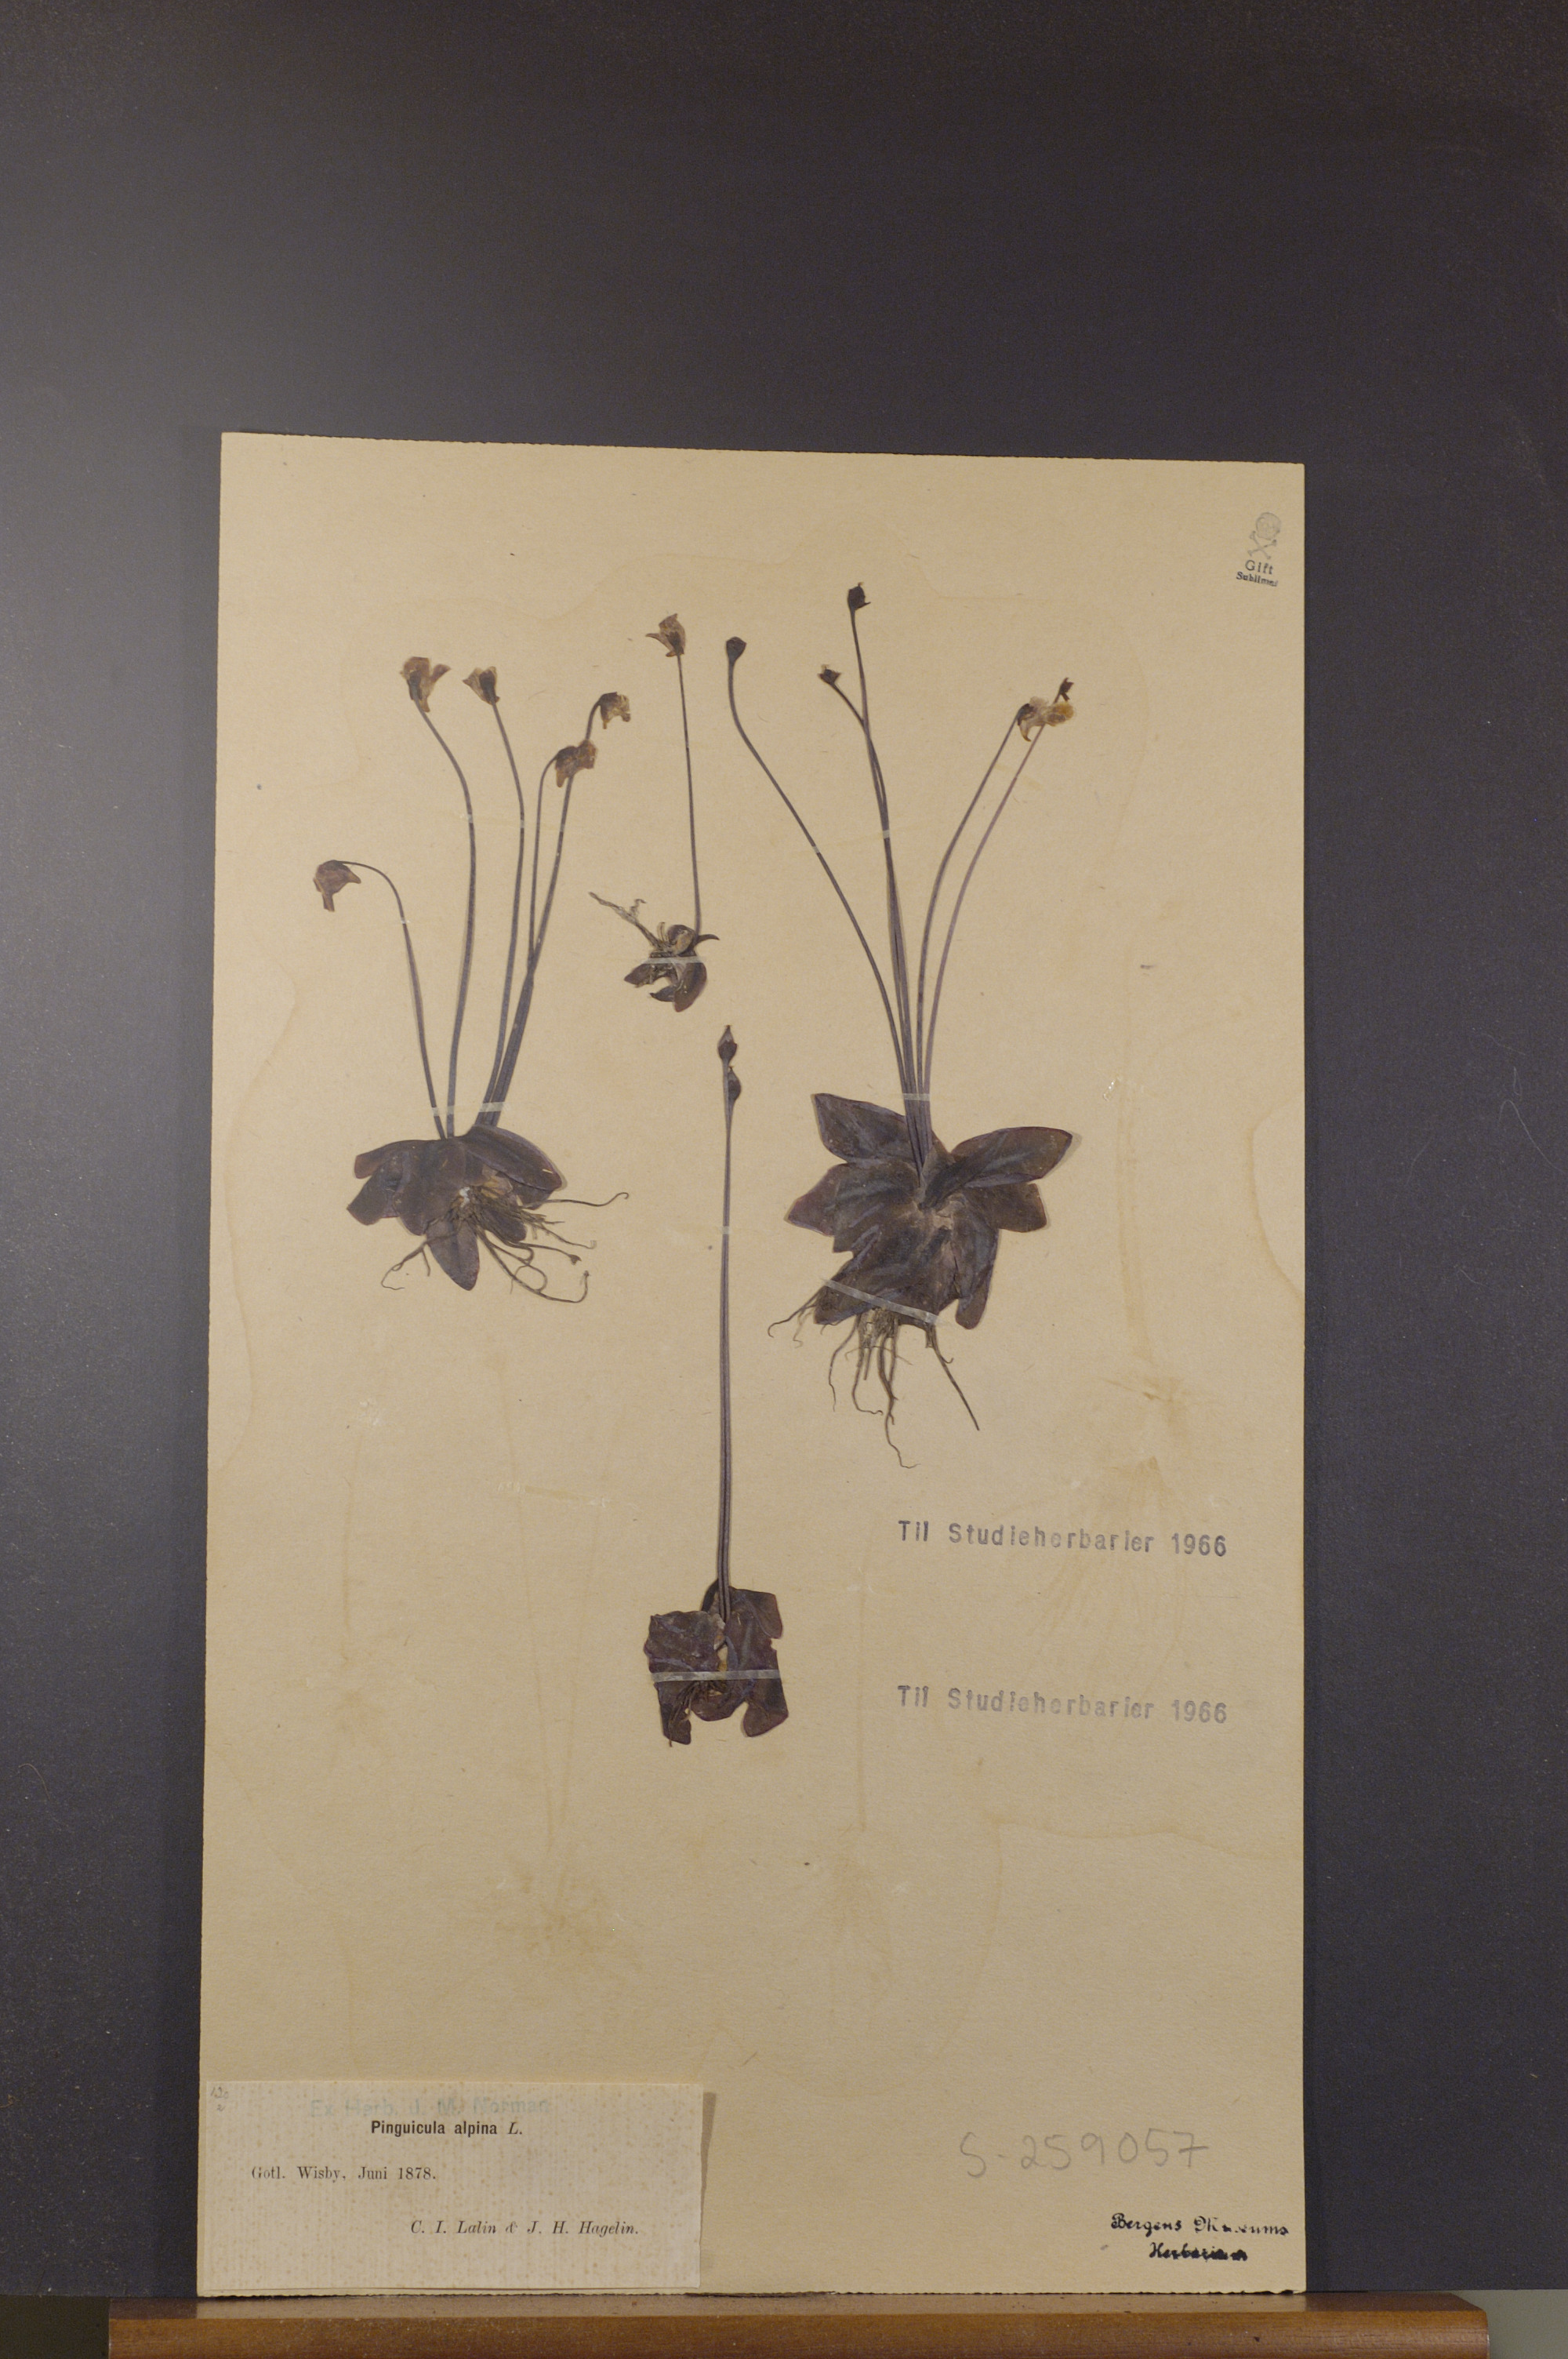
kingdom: Plantae
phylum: Tracheophyta
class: Magnoliopsida
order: Lamiales
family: Lentibulariaceae
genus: Pinguicula
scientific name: Pinguicula alpina
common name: Alpine butterwort
